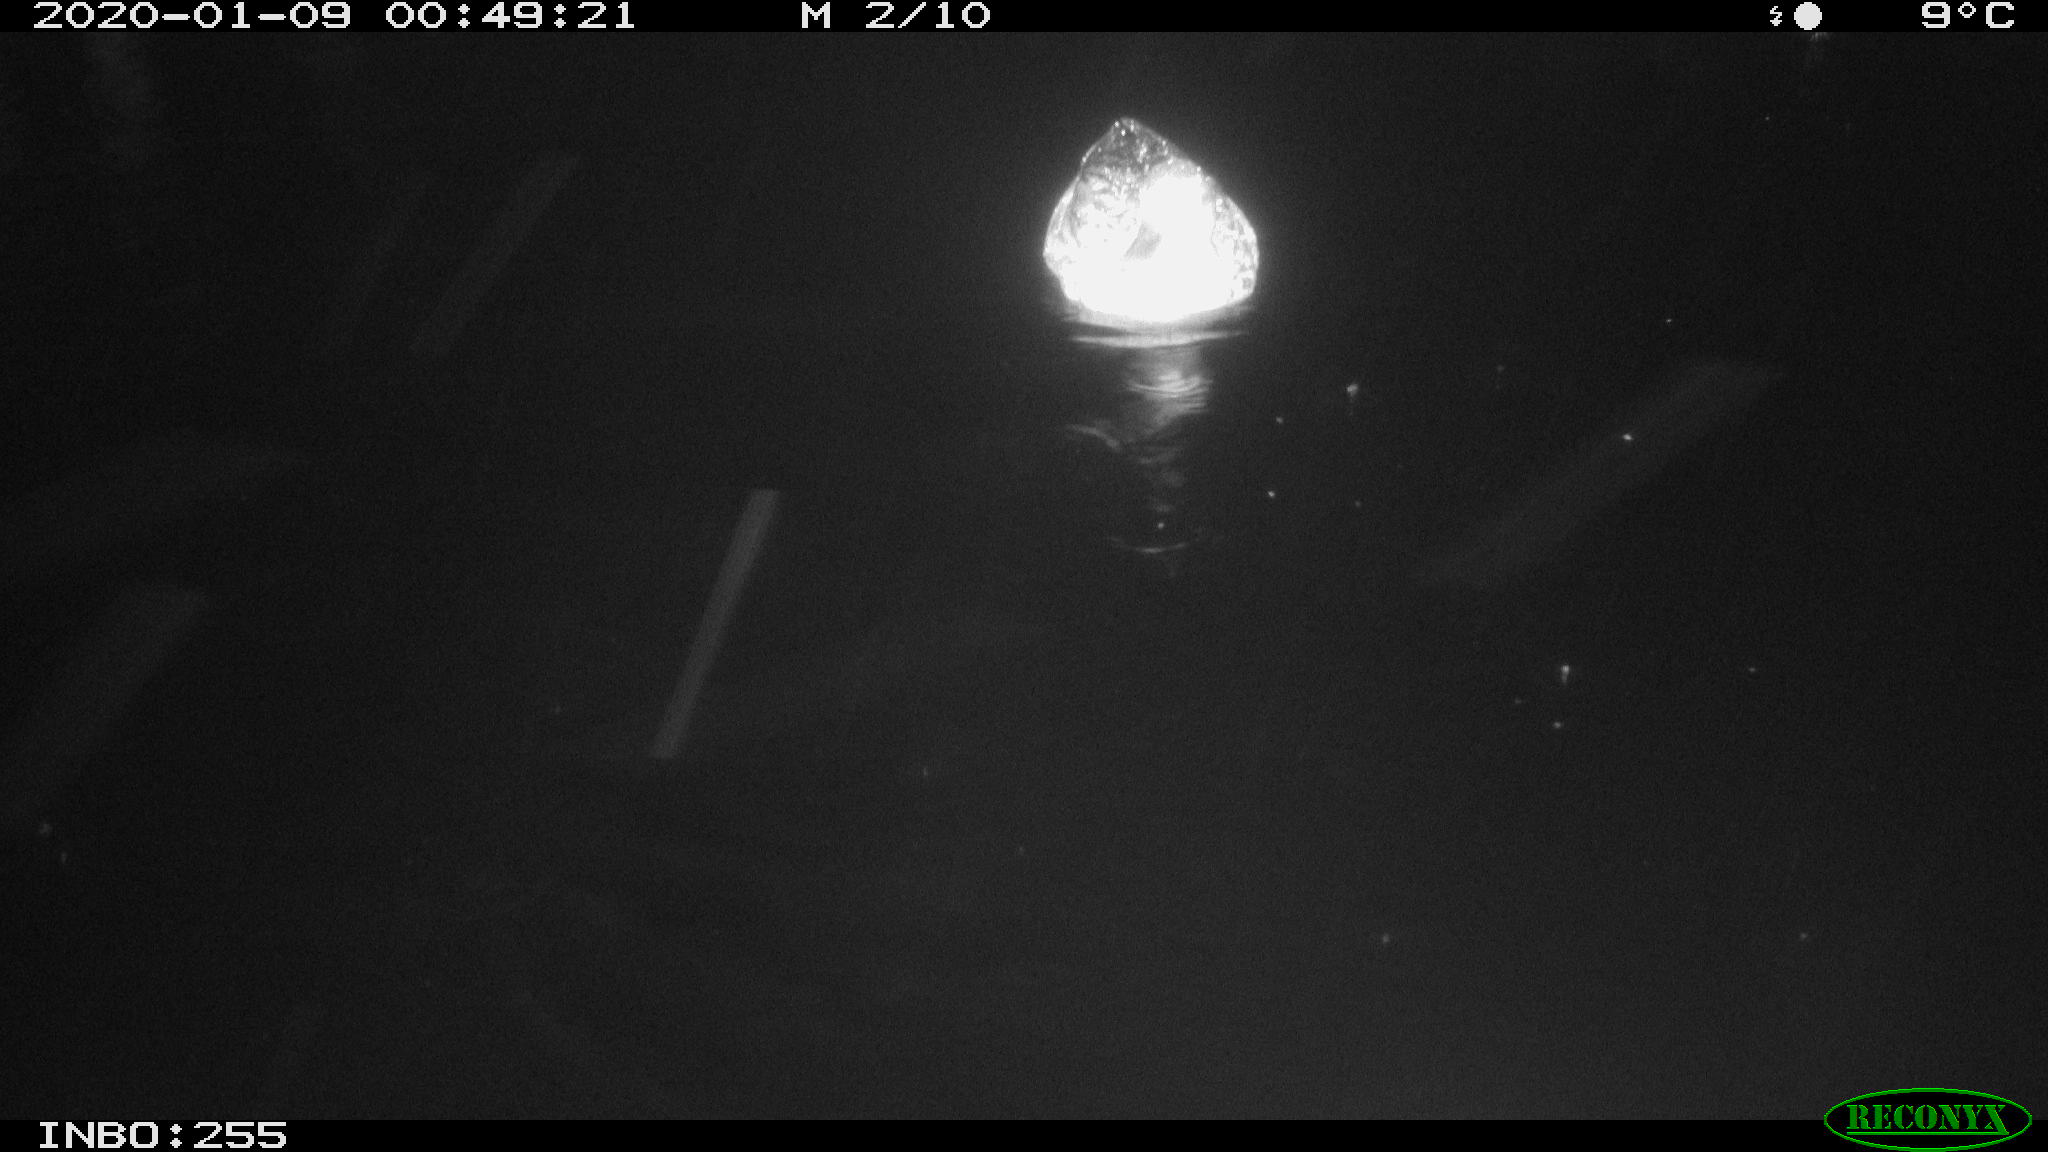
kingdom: Animalia
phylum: Chordata
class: Aves
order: Anseriformes
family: Anatidae
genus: Anas
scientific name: Anas platyrhynchos
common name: Mallard
